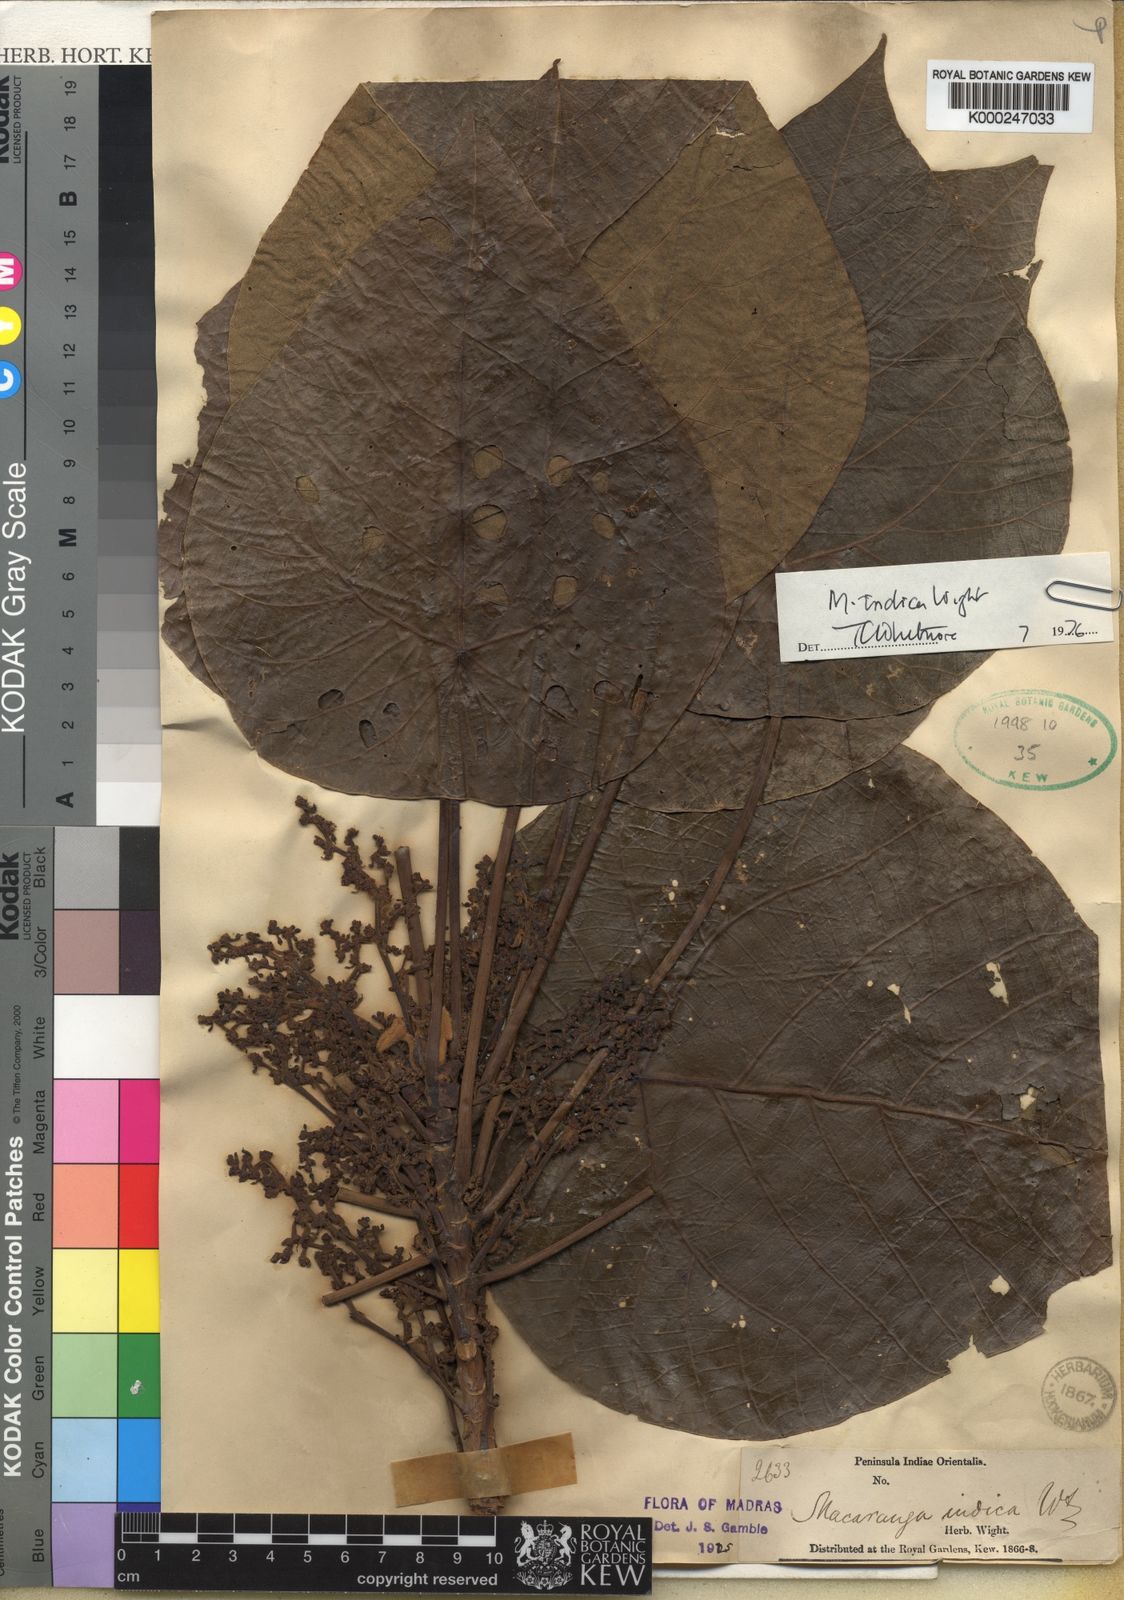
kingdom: Plantae
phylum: Tracheophyta
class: Magnoliopsida
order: Malpighiales
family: Euphorbiaceae
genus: Macaranga
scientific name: Macaranga indica
